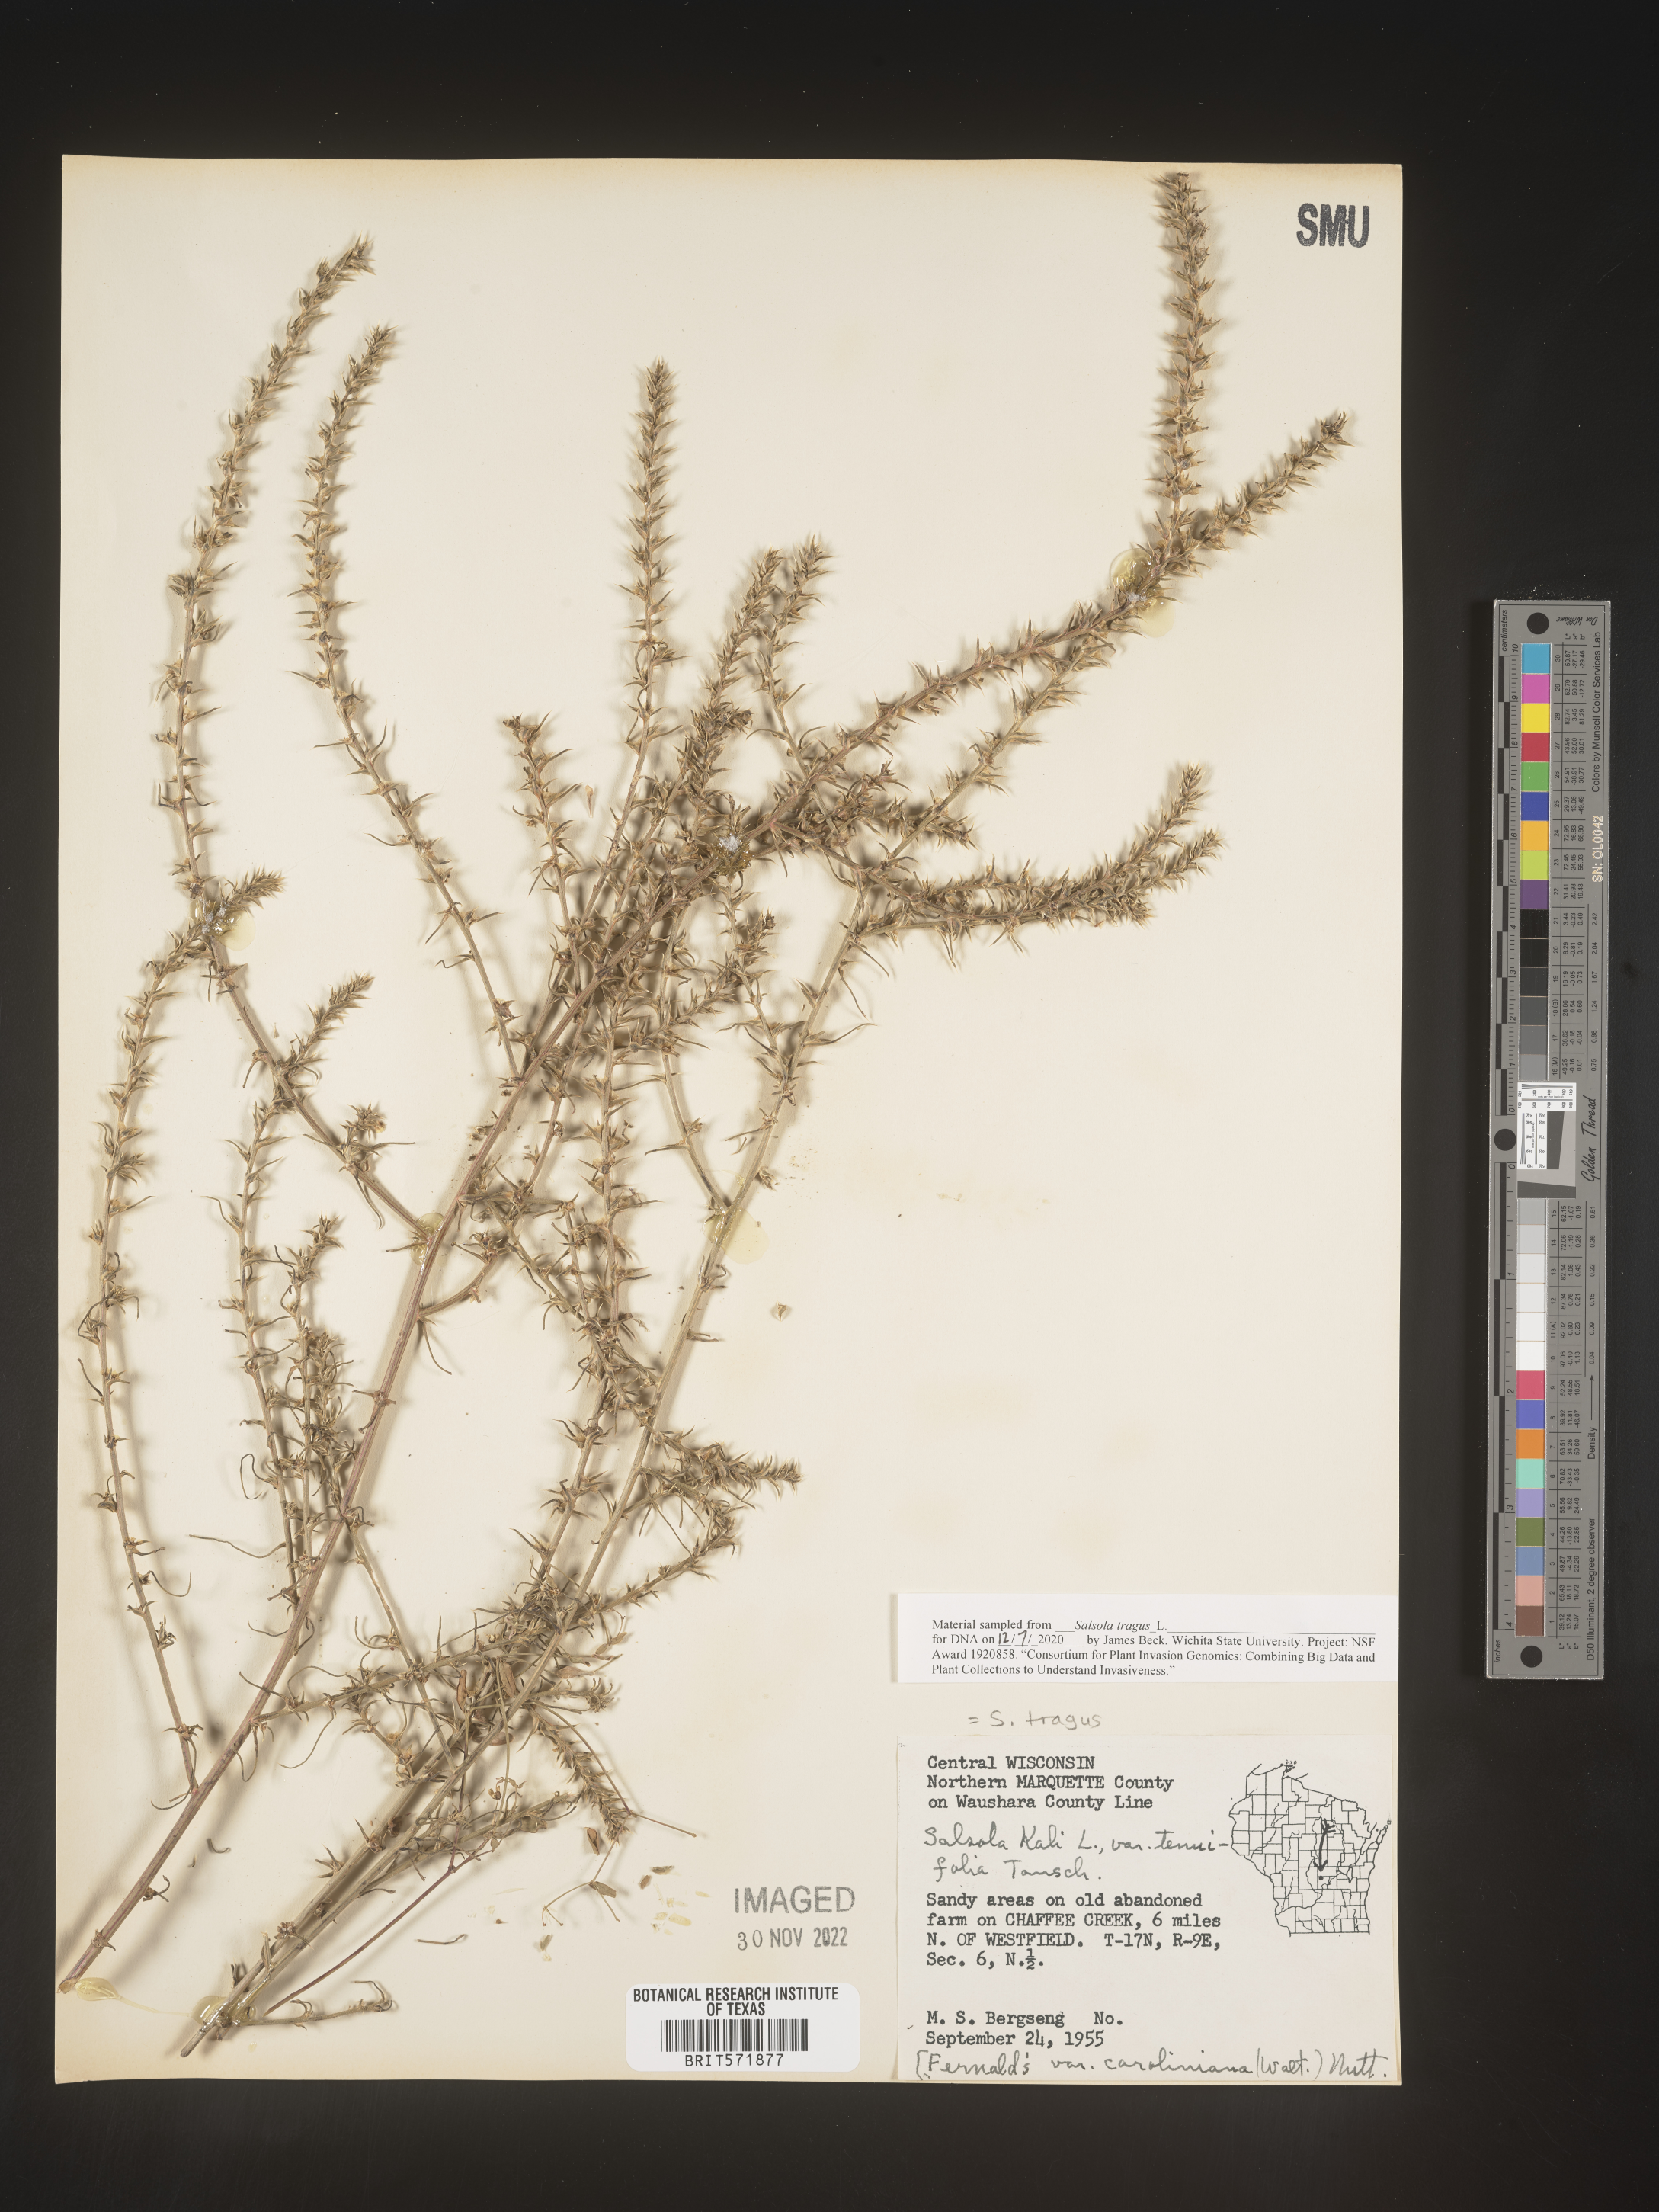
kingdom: Plantae
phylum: Tracheophyta
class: Magnoliopsida
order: Caryophyllales
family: Amaranthaceae
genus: Salsola
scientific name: Salsola tragus
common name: Prickly russian thistle
